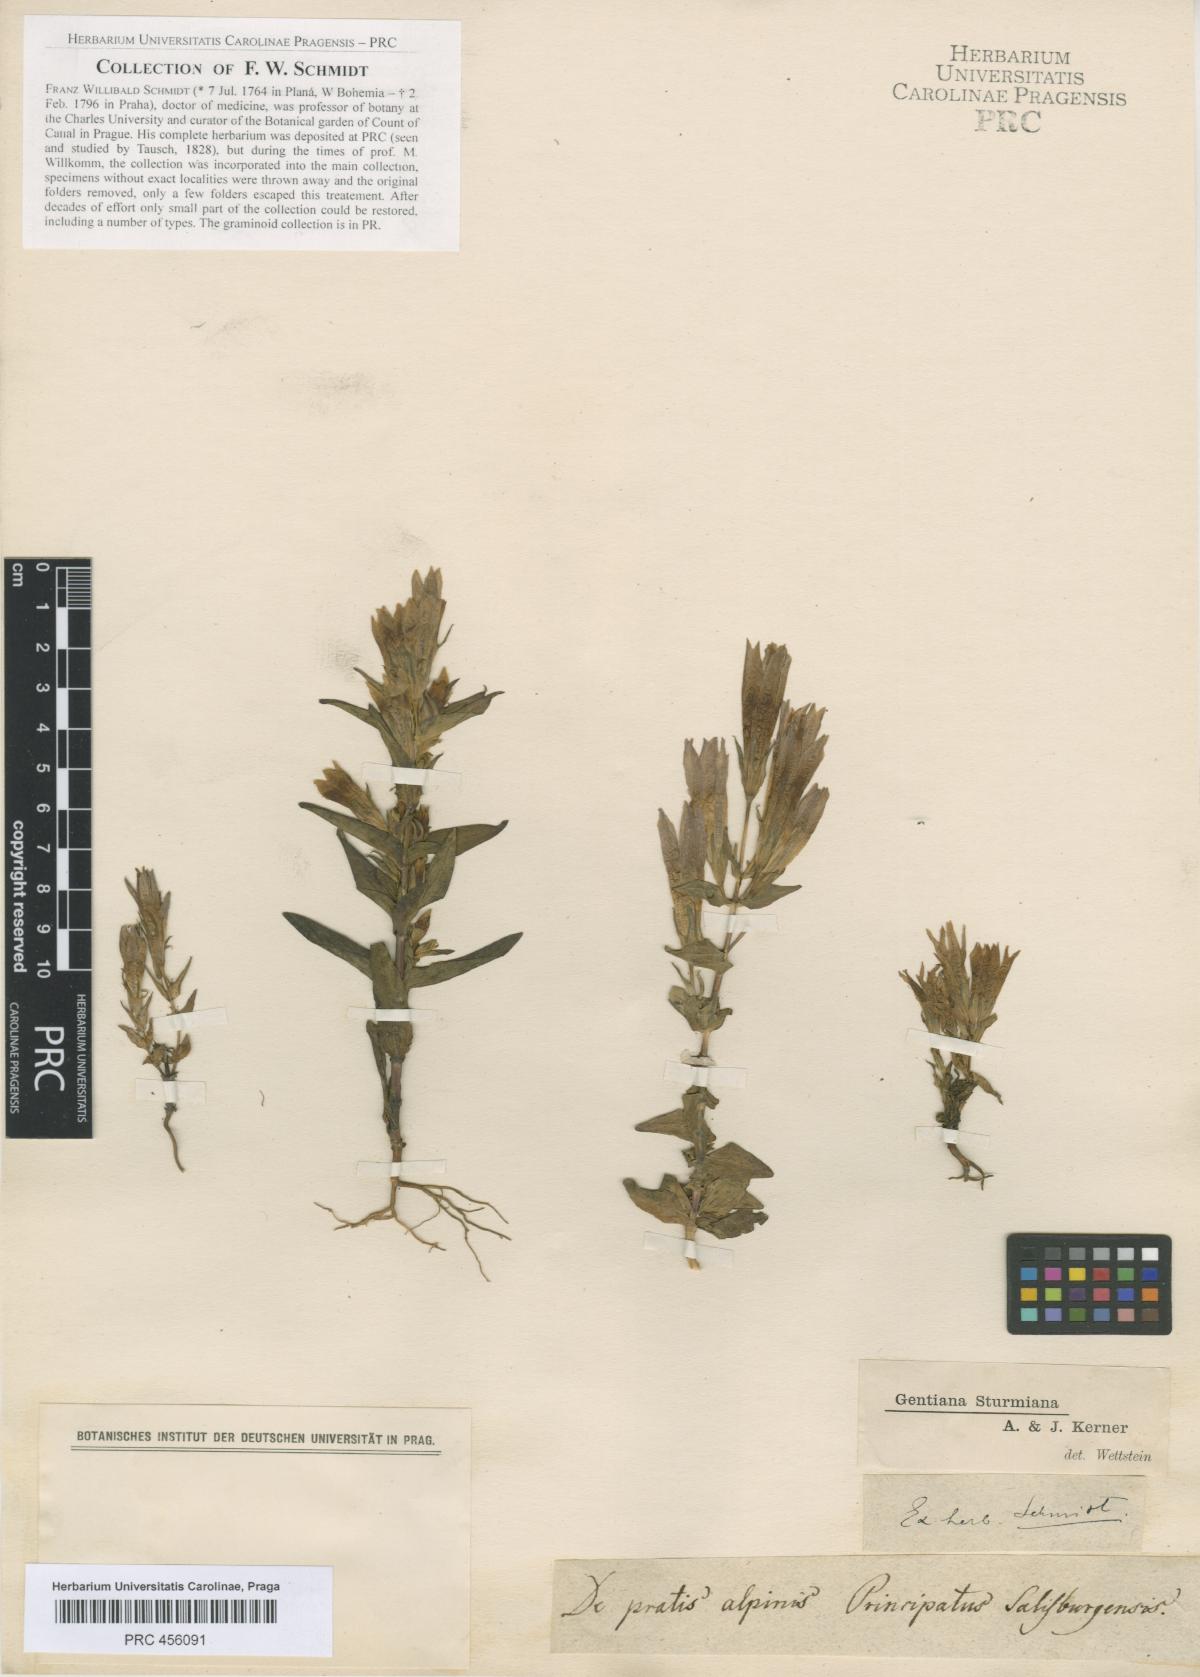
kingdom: Plantae
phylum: Tracheophyta
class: Magnoliopsida
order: Gentianales
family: Gentianaceae
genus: Gentianella
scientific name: Gentianella obtusifolia
